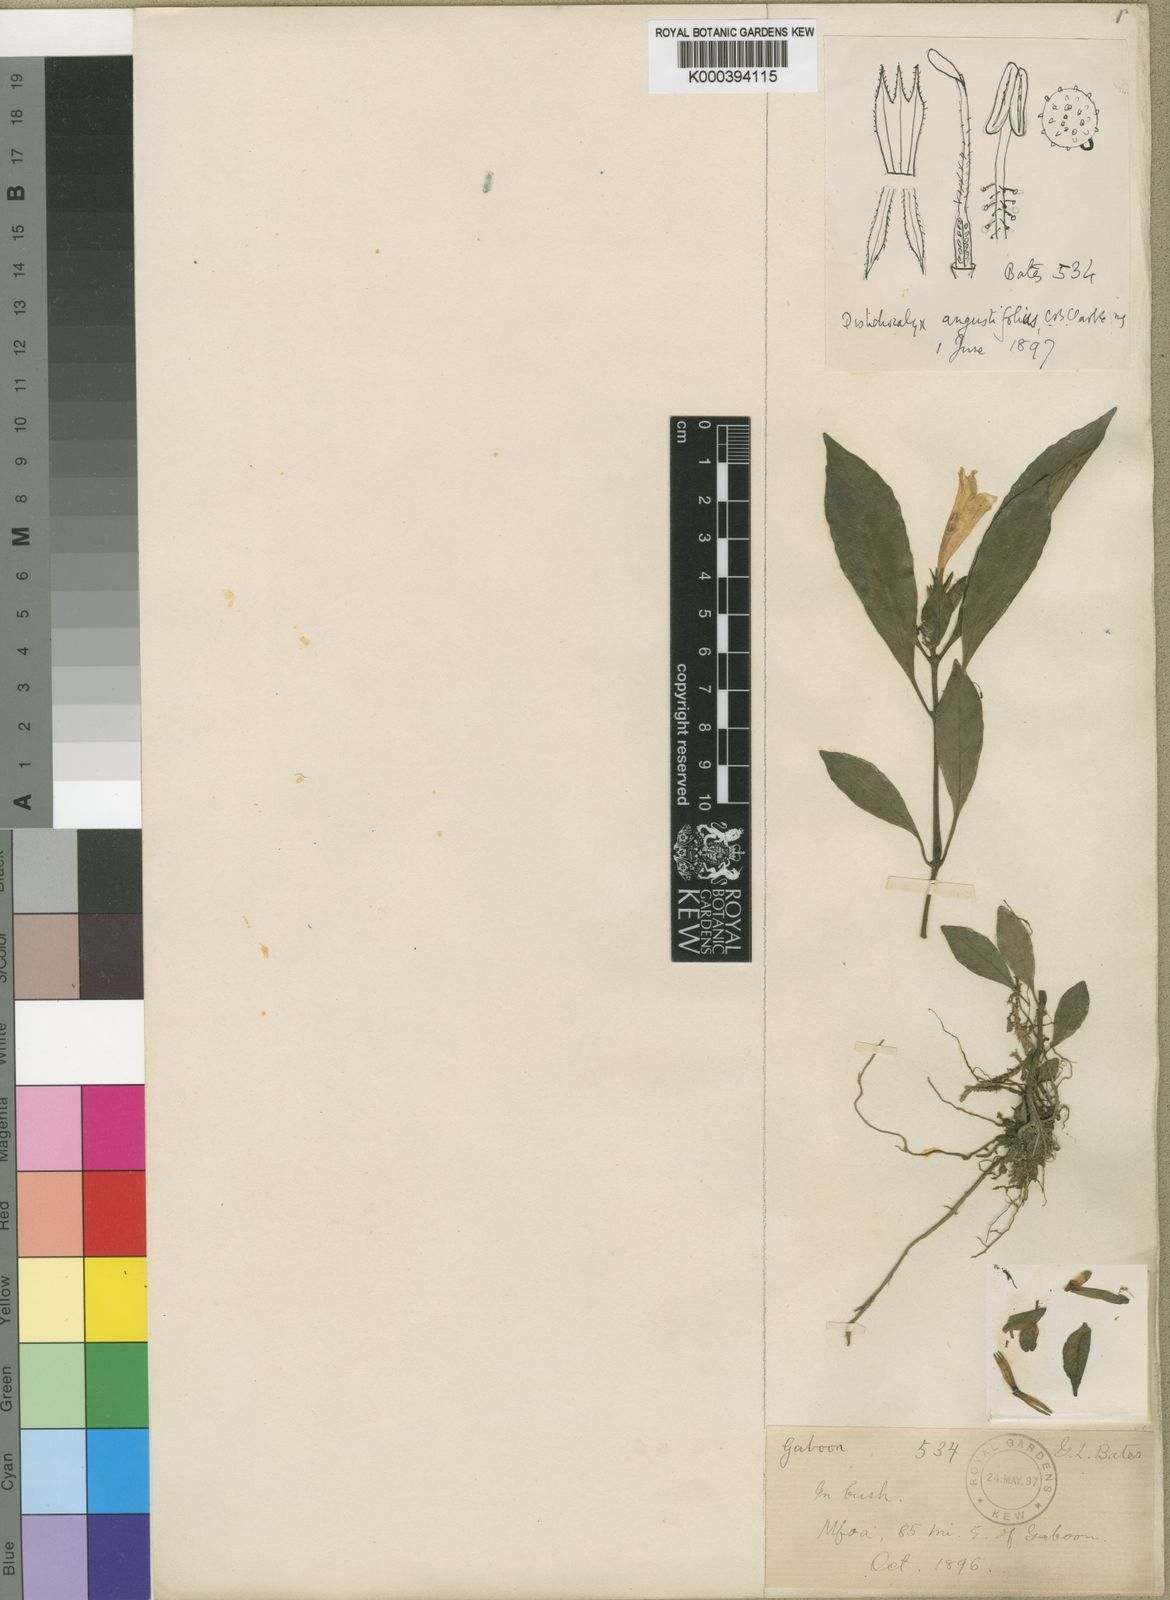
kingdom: Plantae
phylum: Tracheophyta
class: Magnoliopsida
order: Lamiales
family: Acanthaceae
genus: Dischistocalyx
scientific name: Dischistocalyx hirsutus
